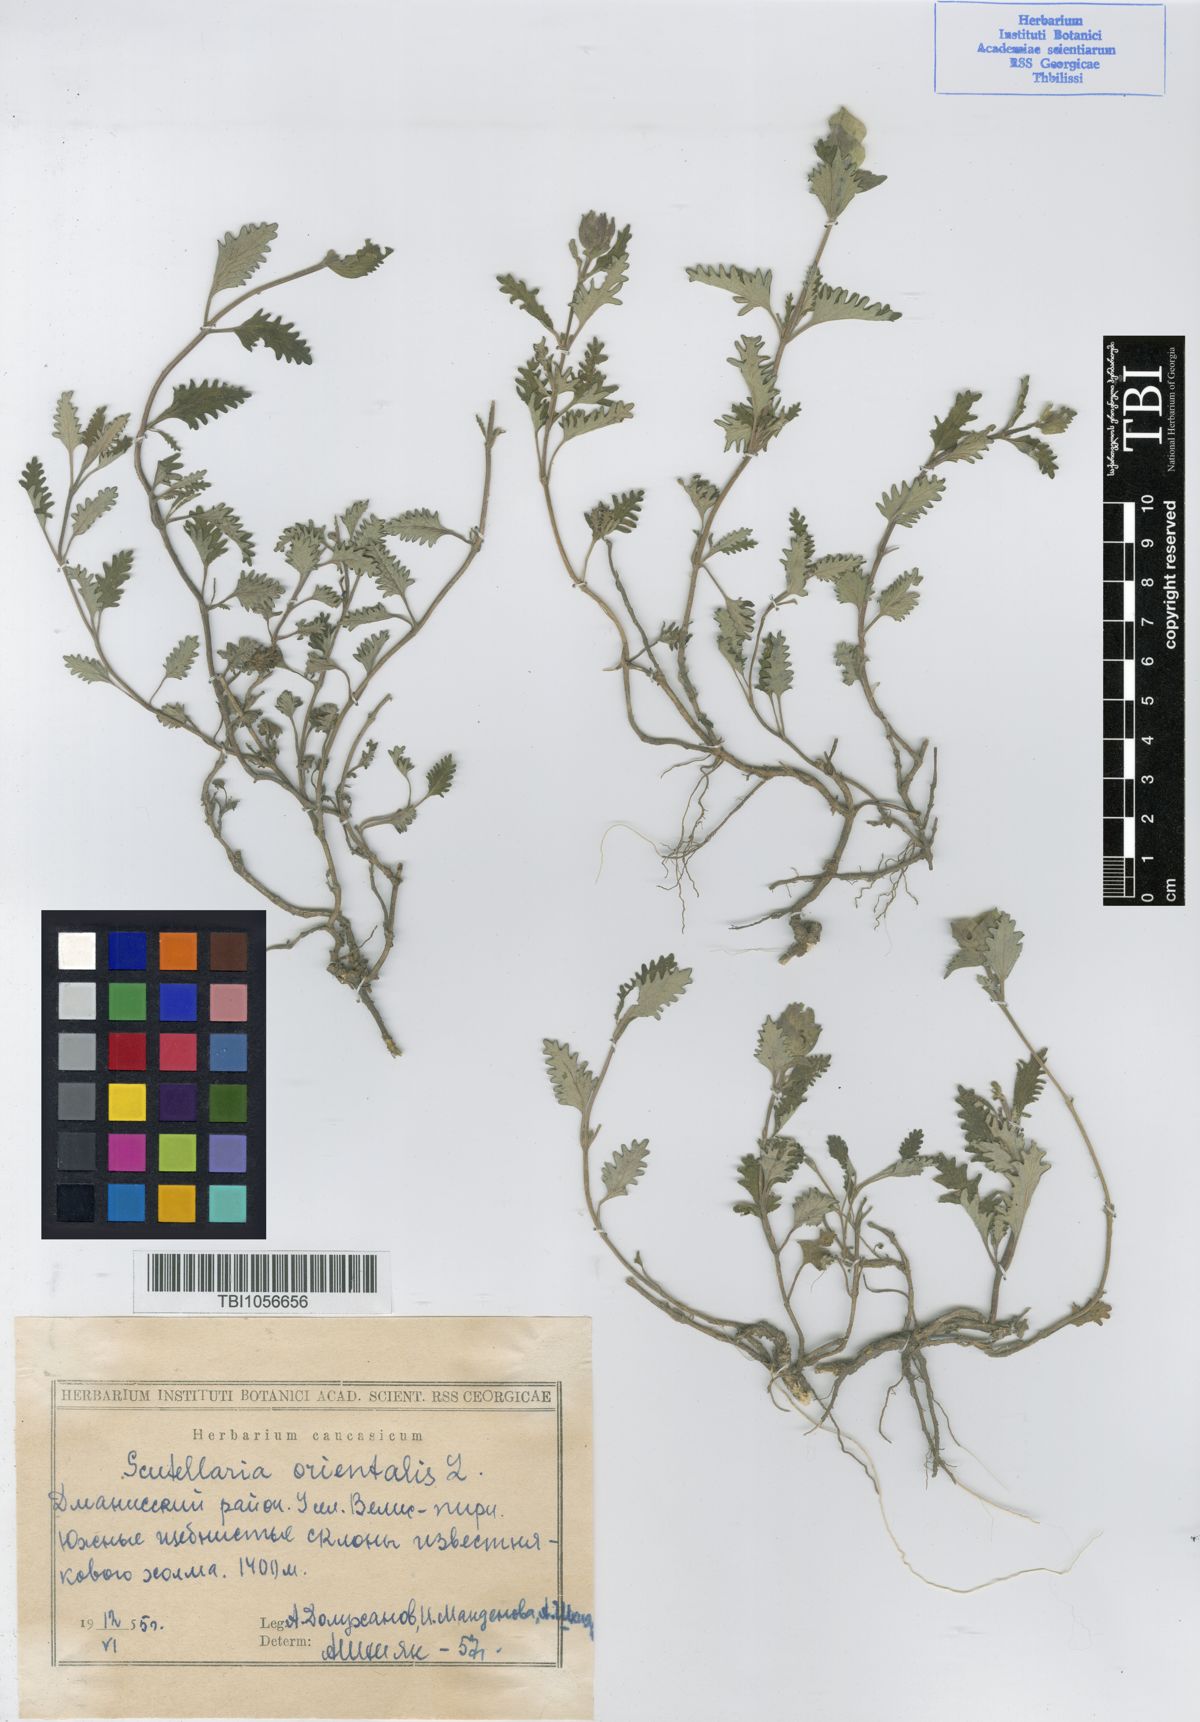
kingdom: Plantae
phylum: Tracheophyta
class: Magnoliopsida
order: Lamiales
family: Lamiaceae
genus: Scutellaria
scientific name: Scutellaria orientalis
